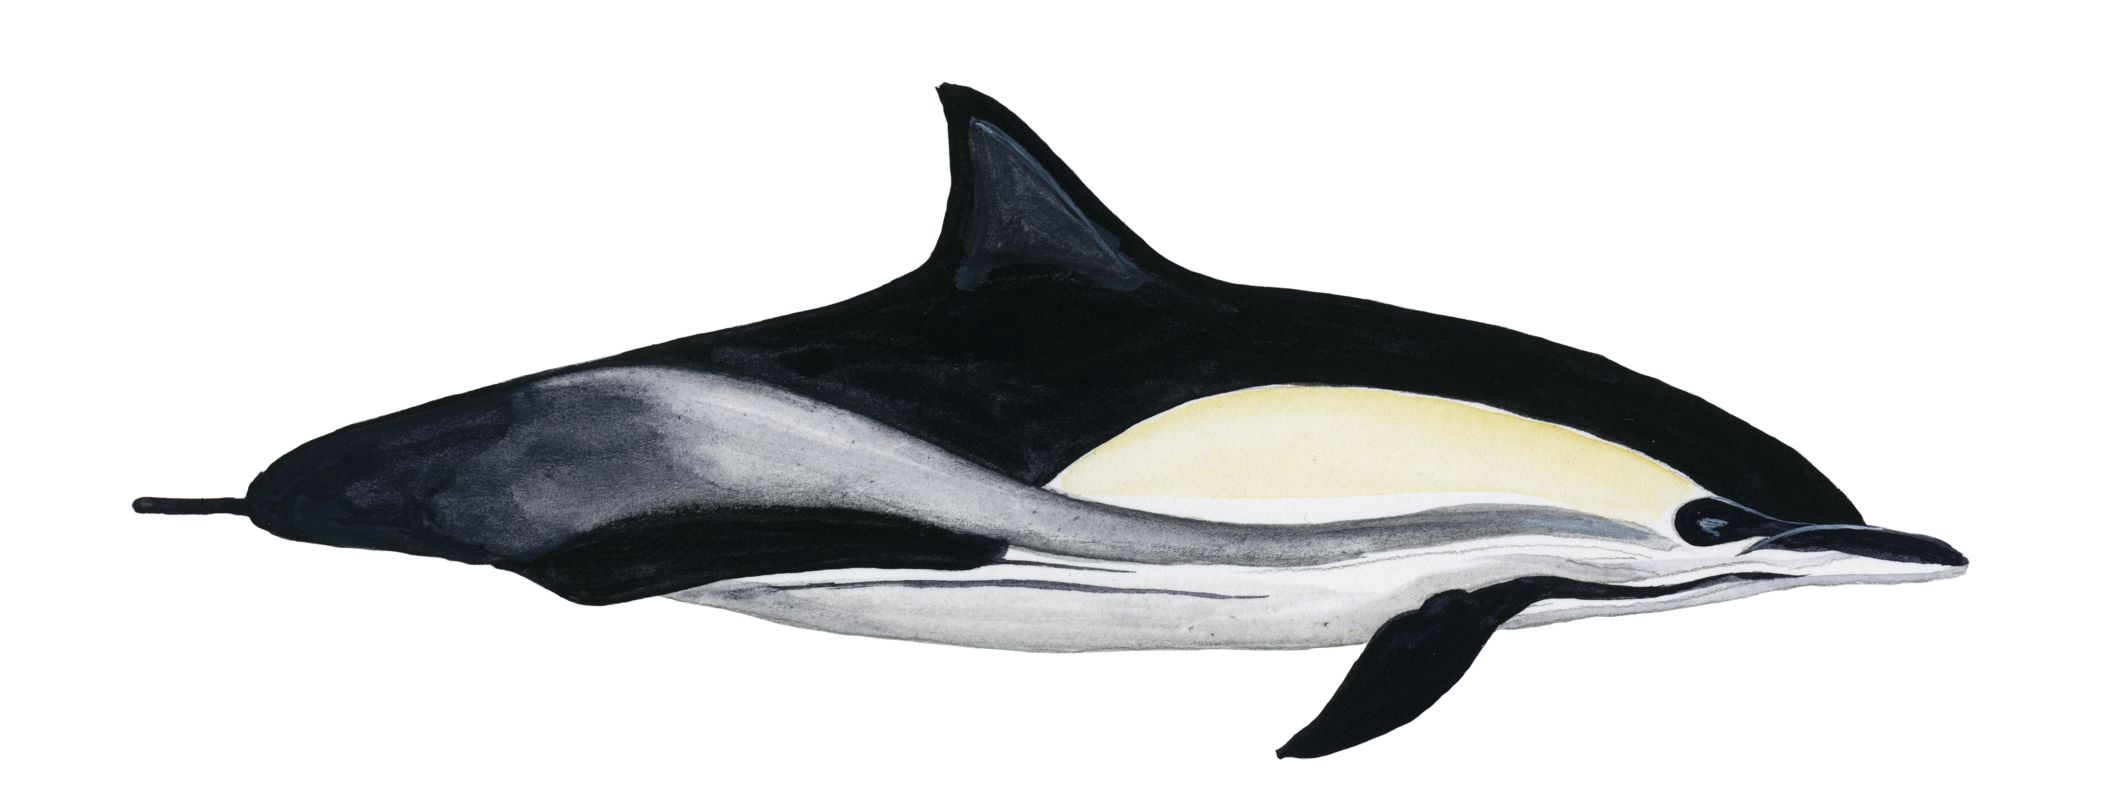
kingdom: Animalia
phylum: Chordata
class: Mammalia
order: Cetacea
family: Delphinidae
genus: Delphinus
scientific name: Delphinus delphis
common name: Common dolphin
